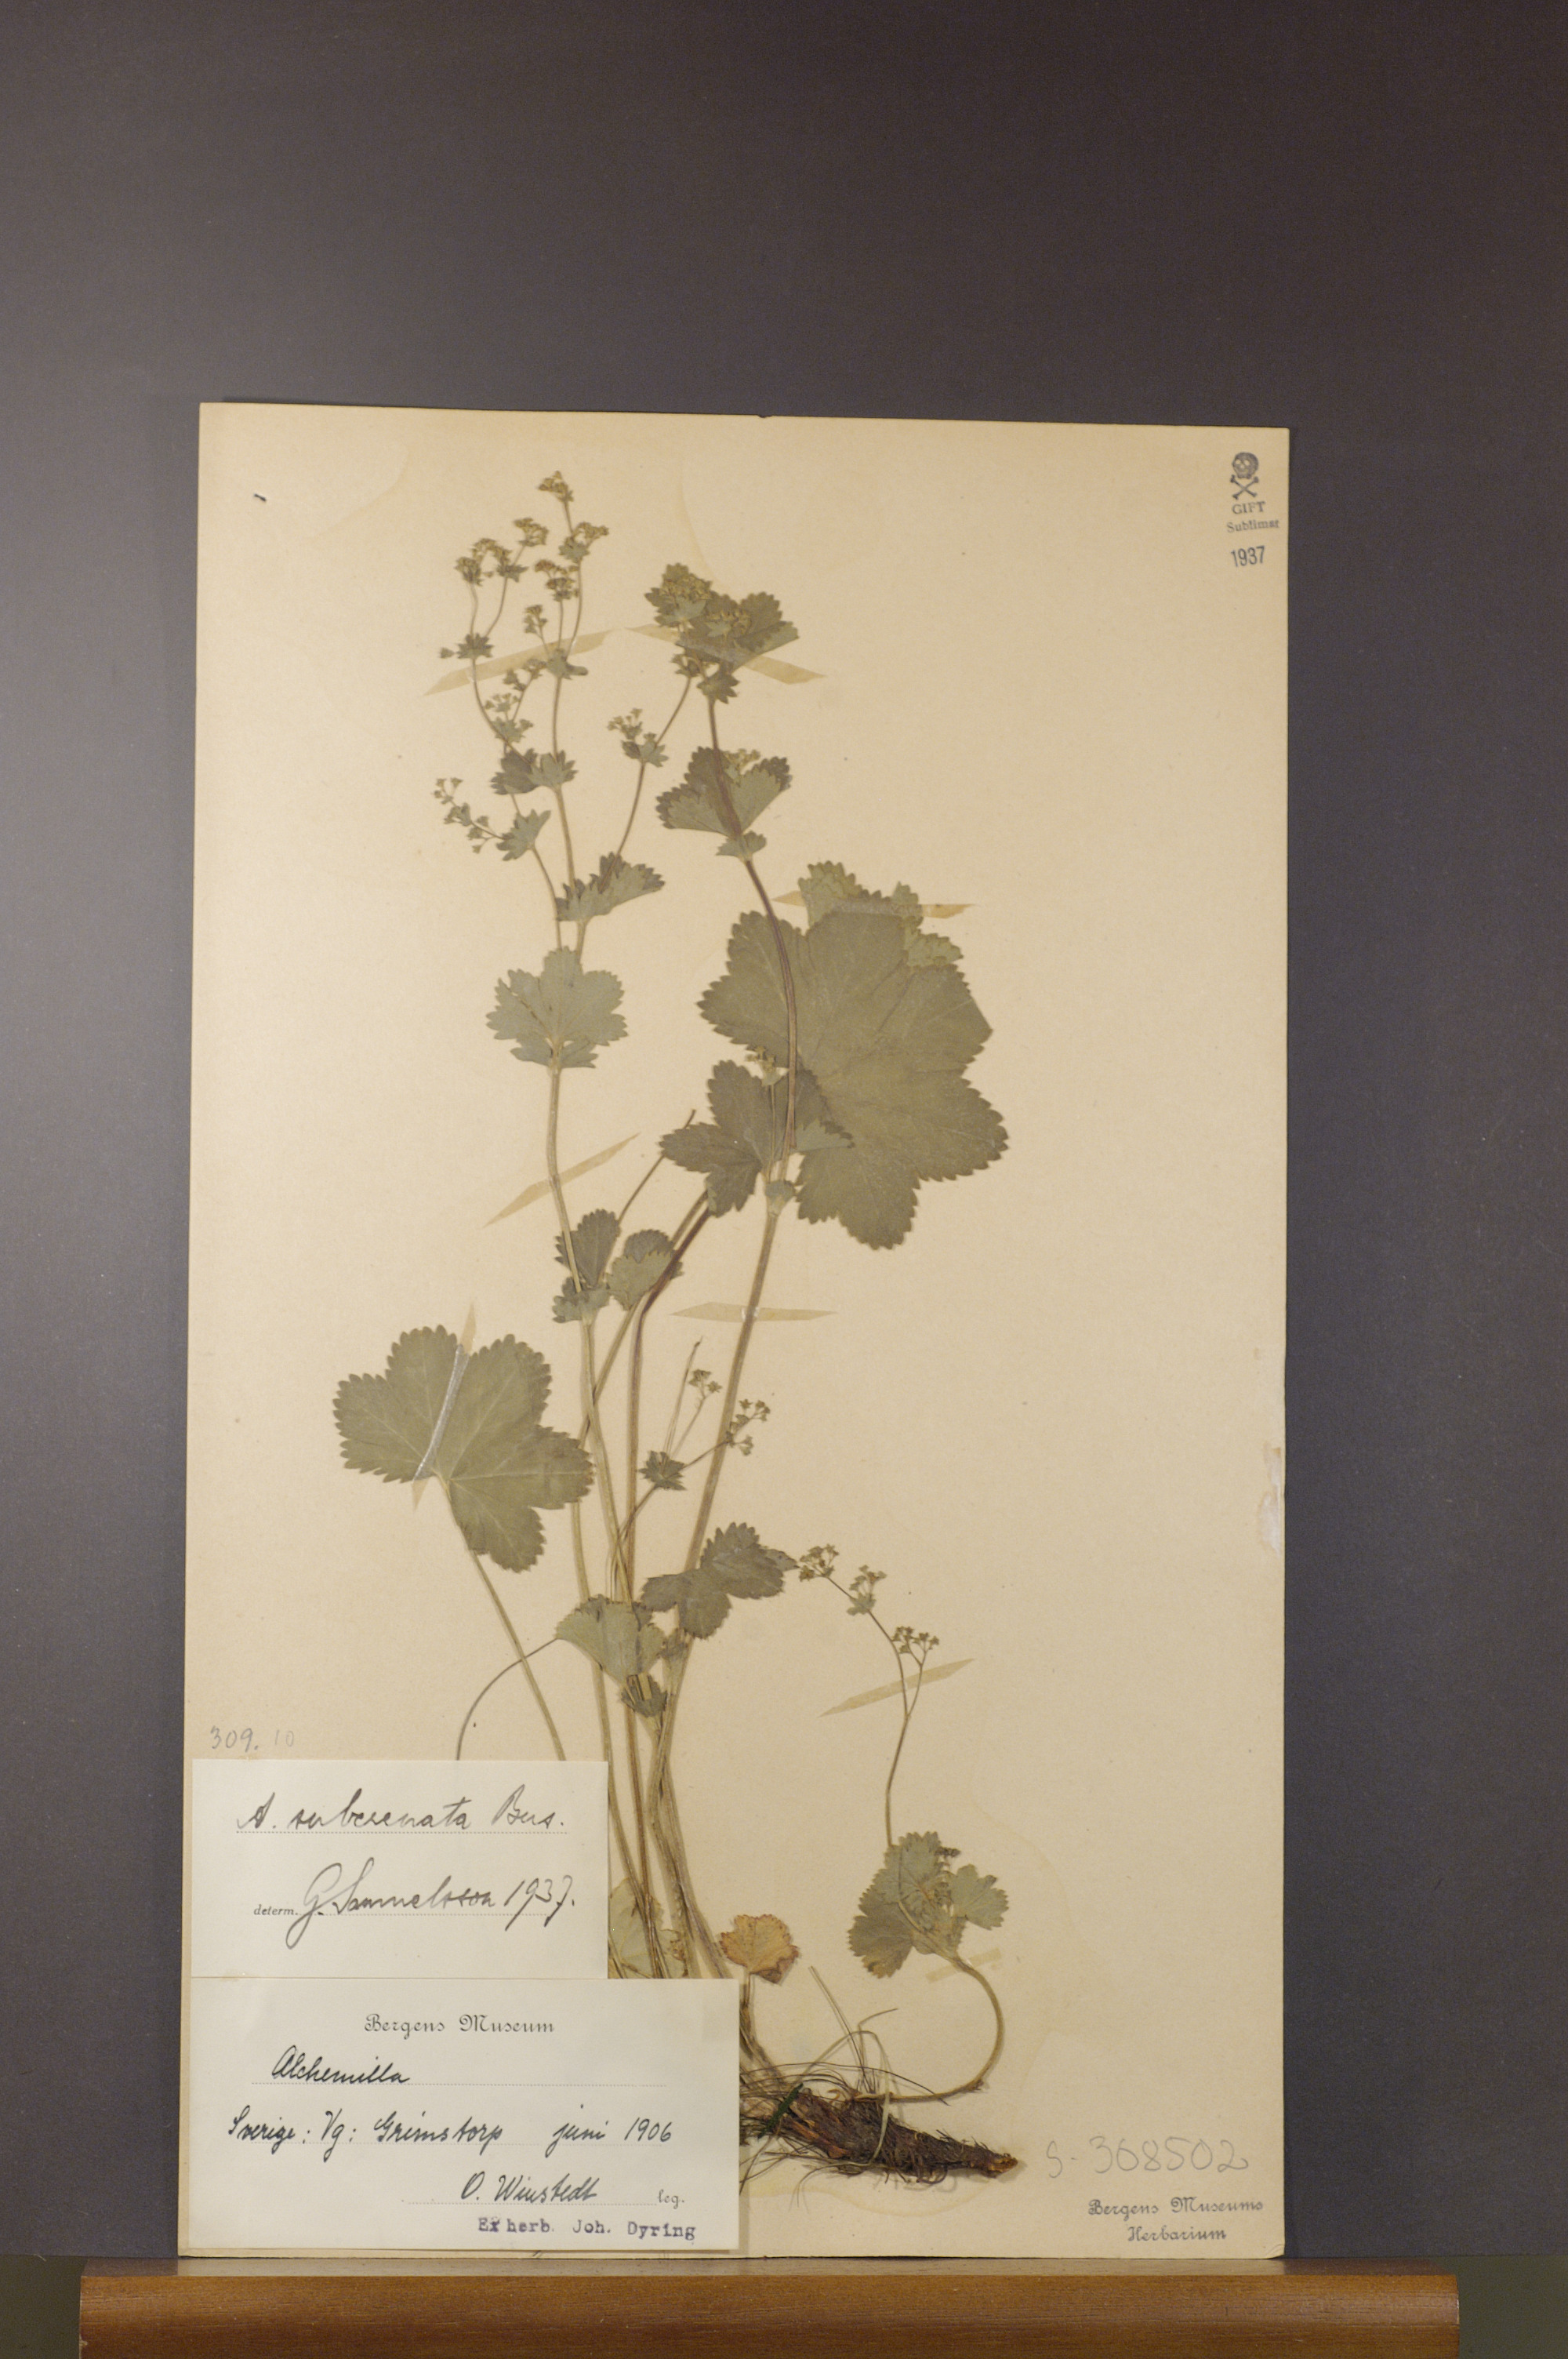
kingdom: Plantae
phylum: Tracheophyta
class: Magnoliopsida
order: Rosales
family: Rosaceae
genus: Alchemilla
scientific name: Alchemilla subcrenata
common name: Broadtooth lady's mantle
